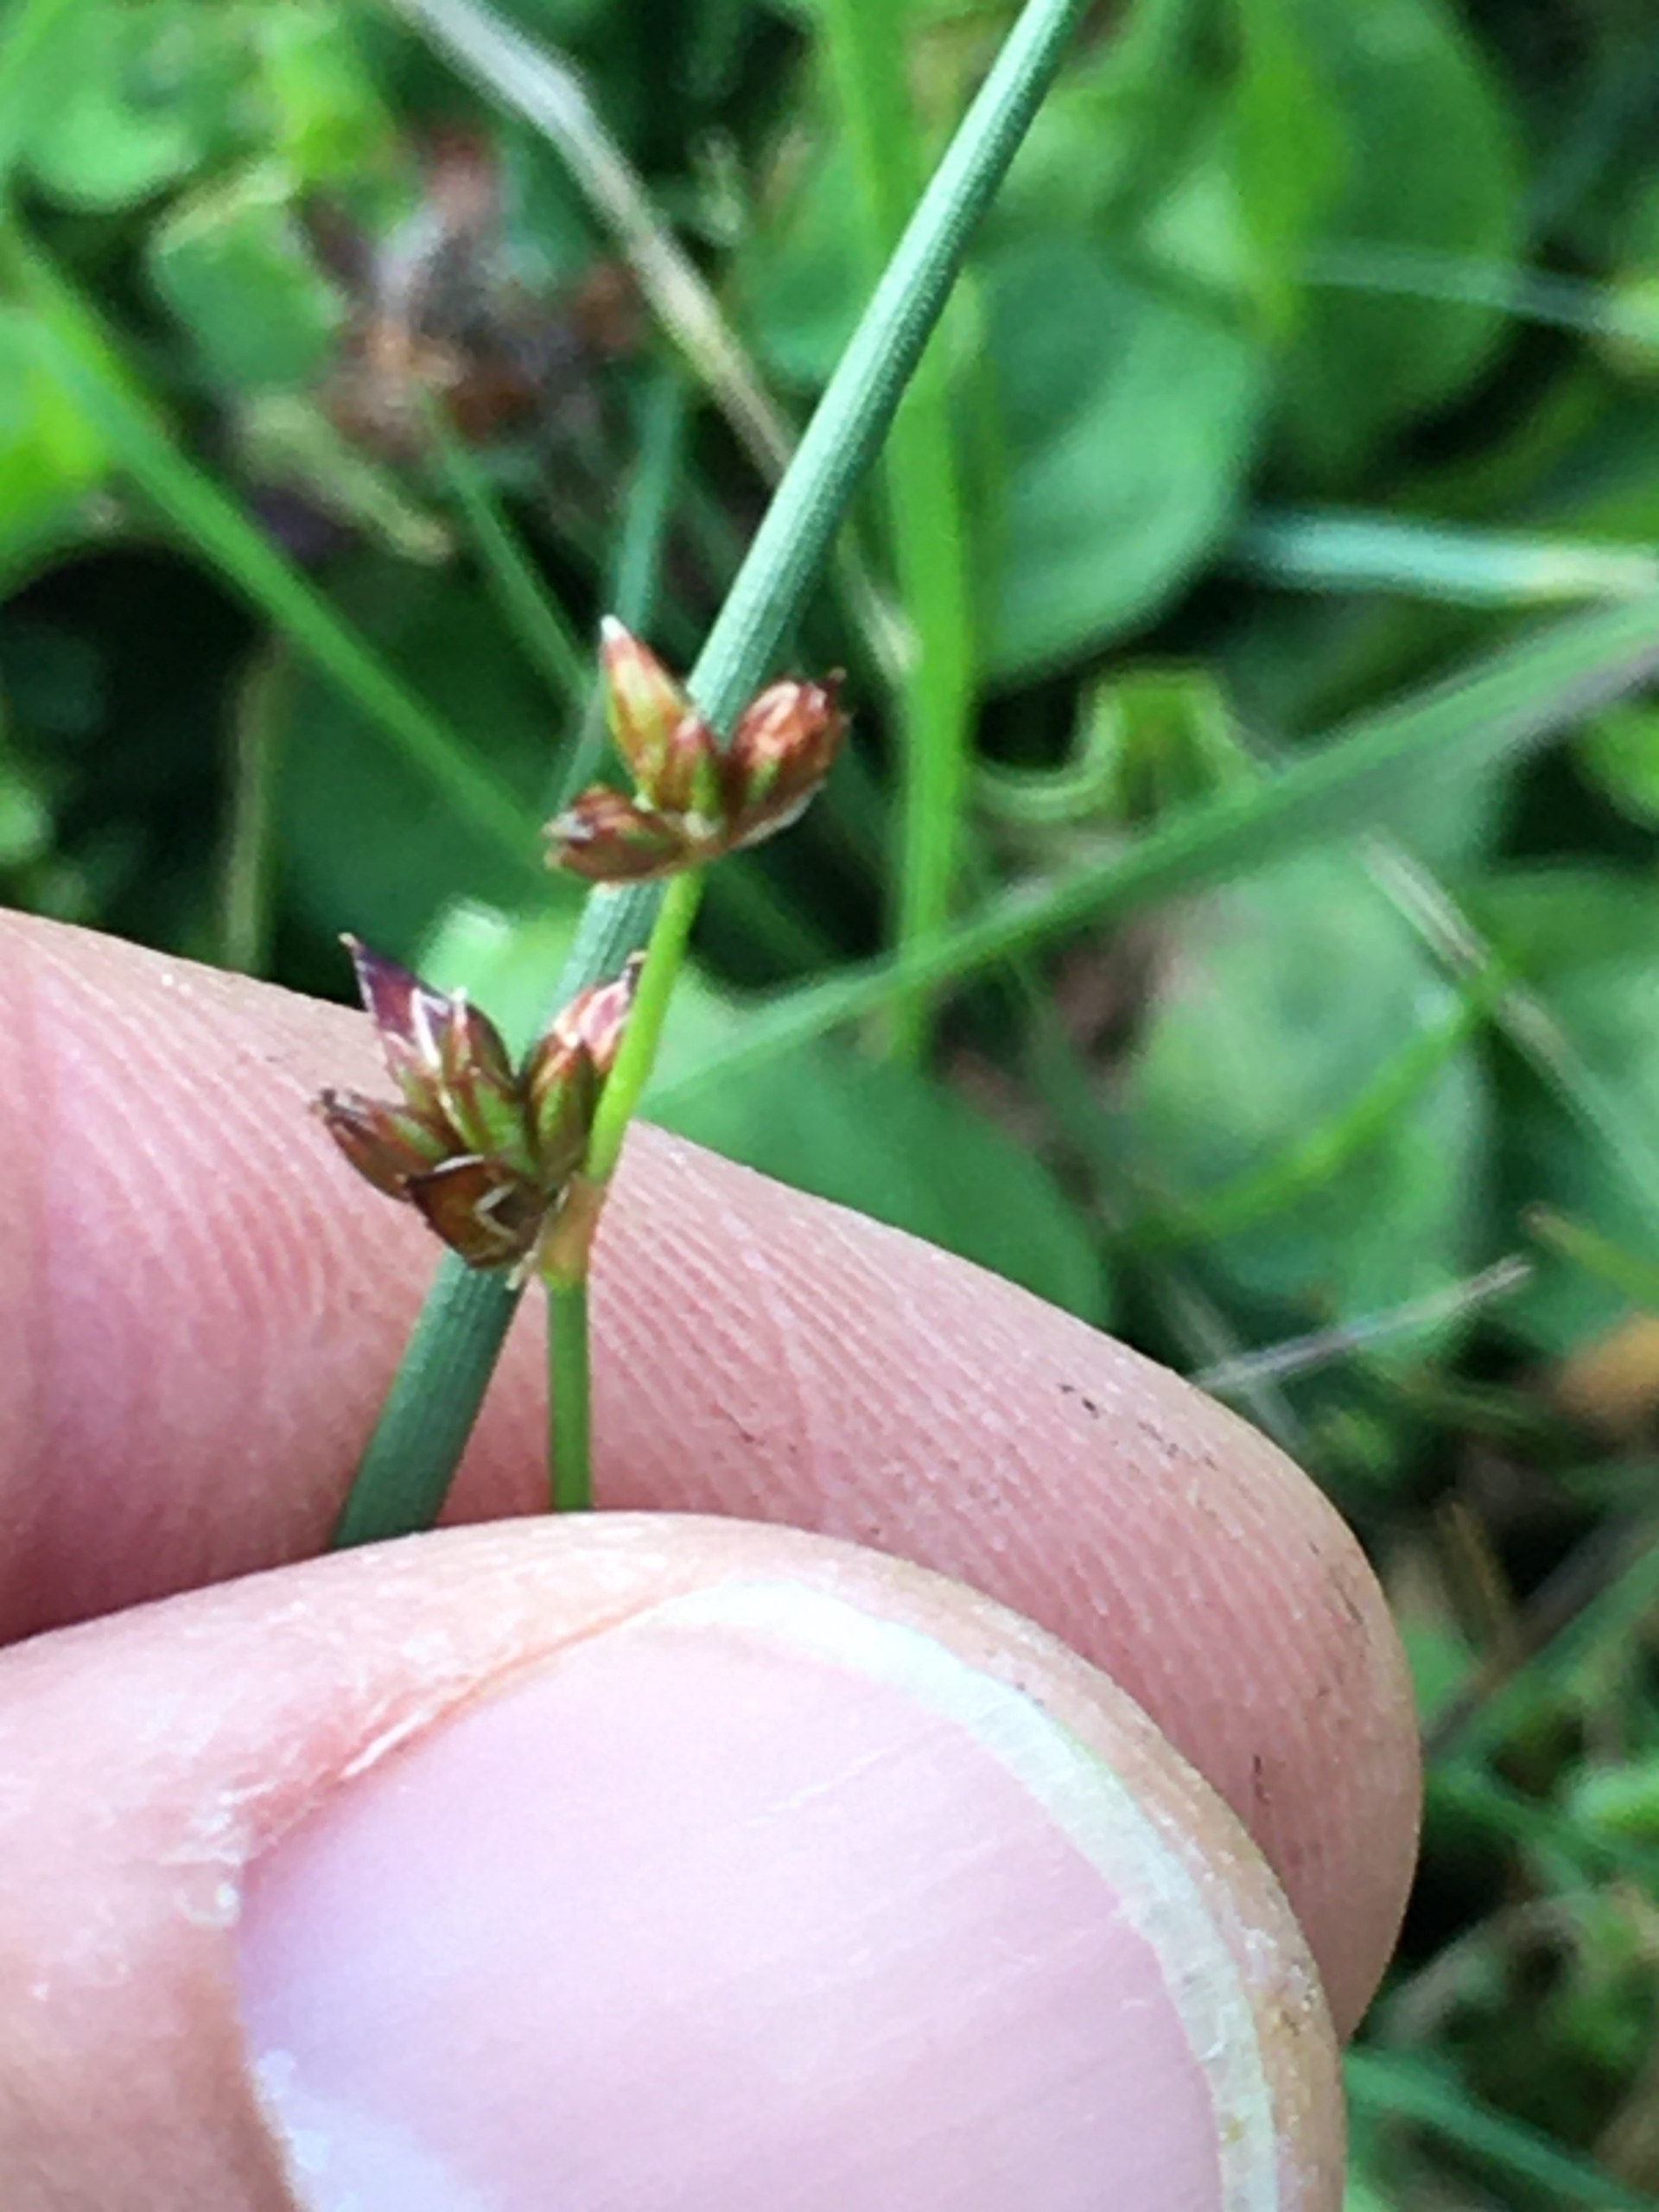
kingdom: Plantae
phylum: Tracheophyta
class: Liliopsida
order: Poales
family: Juncaceae
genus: Juncus
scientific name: Juncus articulatus
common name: Glanskapslet siv
